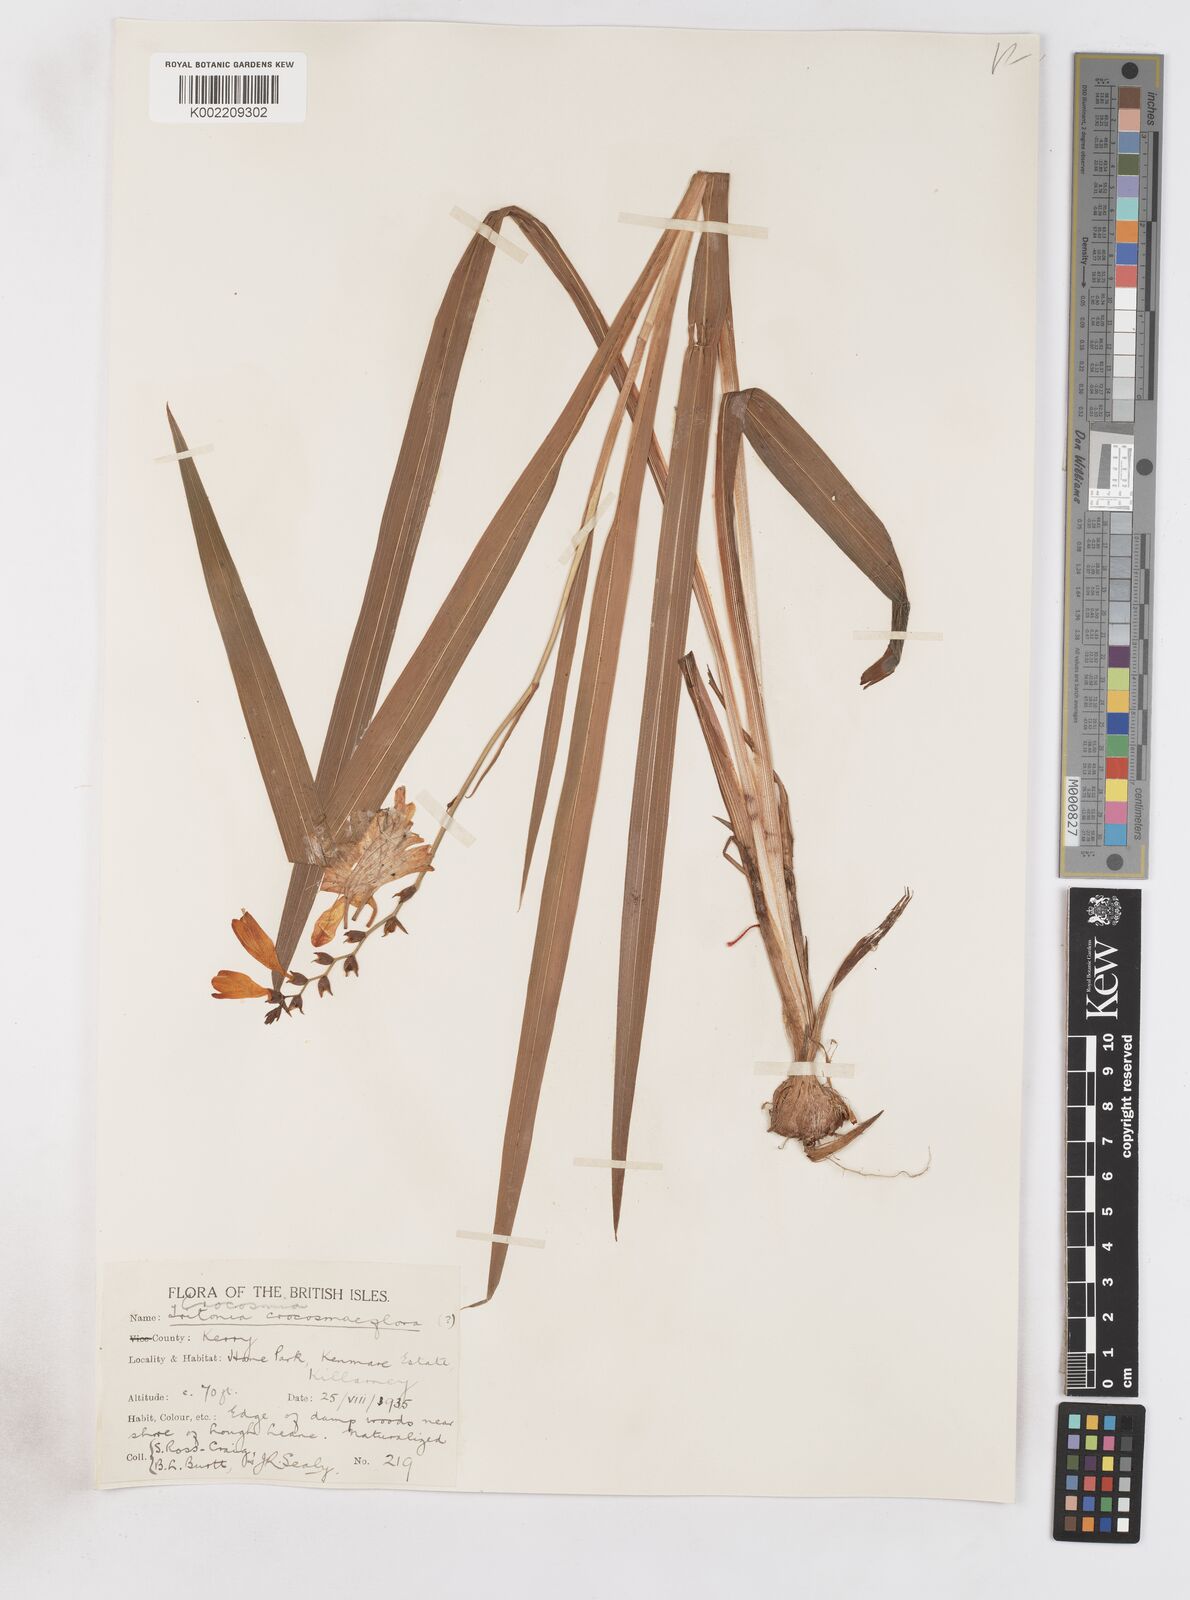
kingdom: Plantae
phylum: Tracheophyta
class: Liliopsida
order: Asparagales
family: Iridaceae
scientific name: Iridaceae
